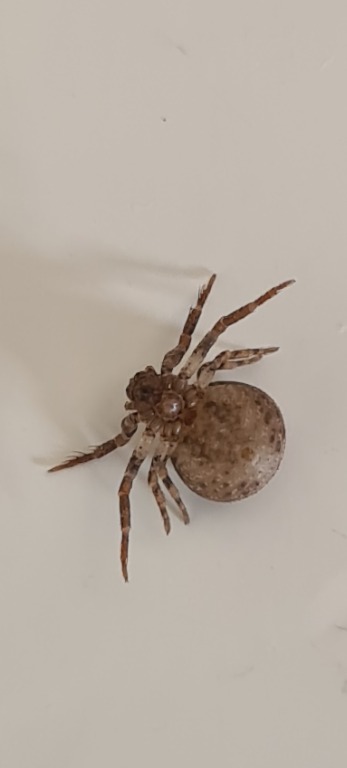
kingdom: Animalia
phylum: Arthropoda
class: Arachnida
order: Araneae
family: Thomisidae
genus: Ozyptila
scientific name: Ozyptila praticola
